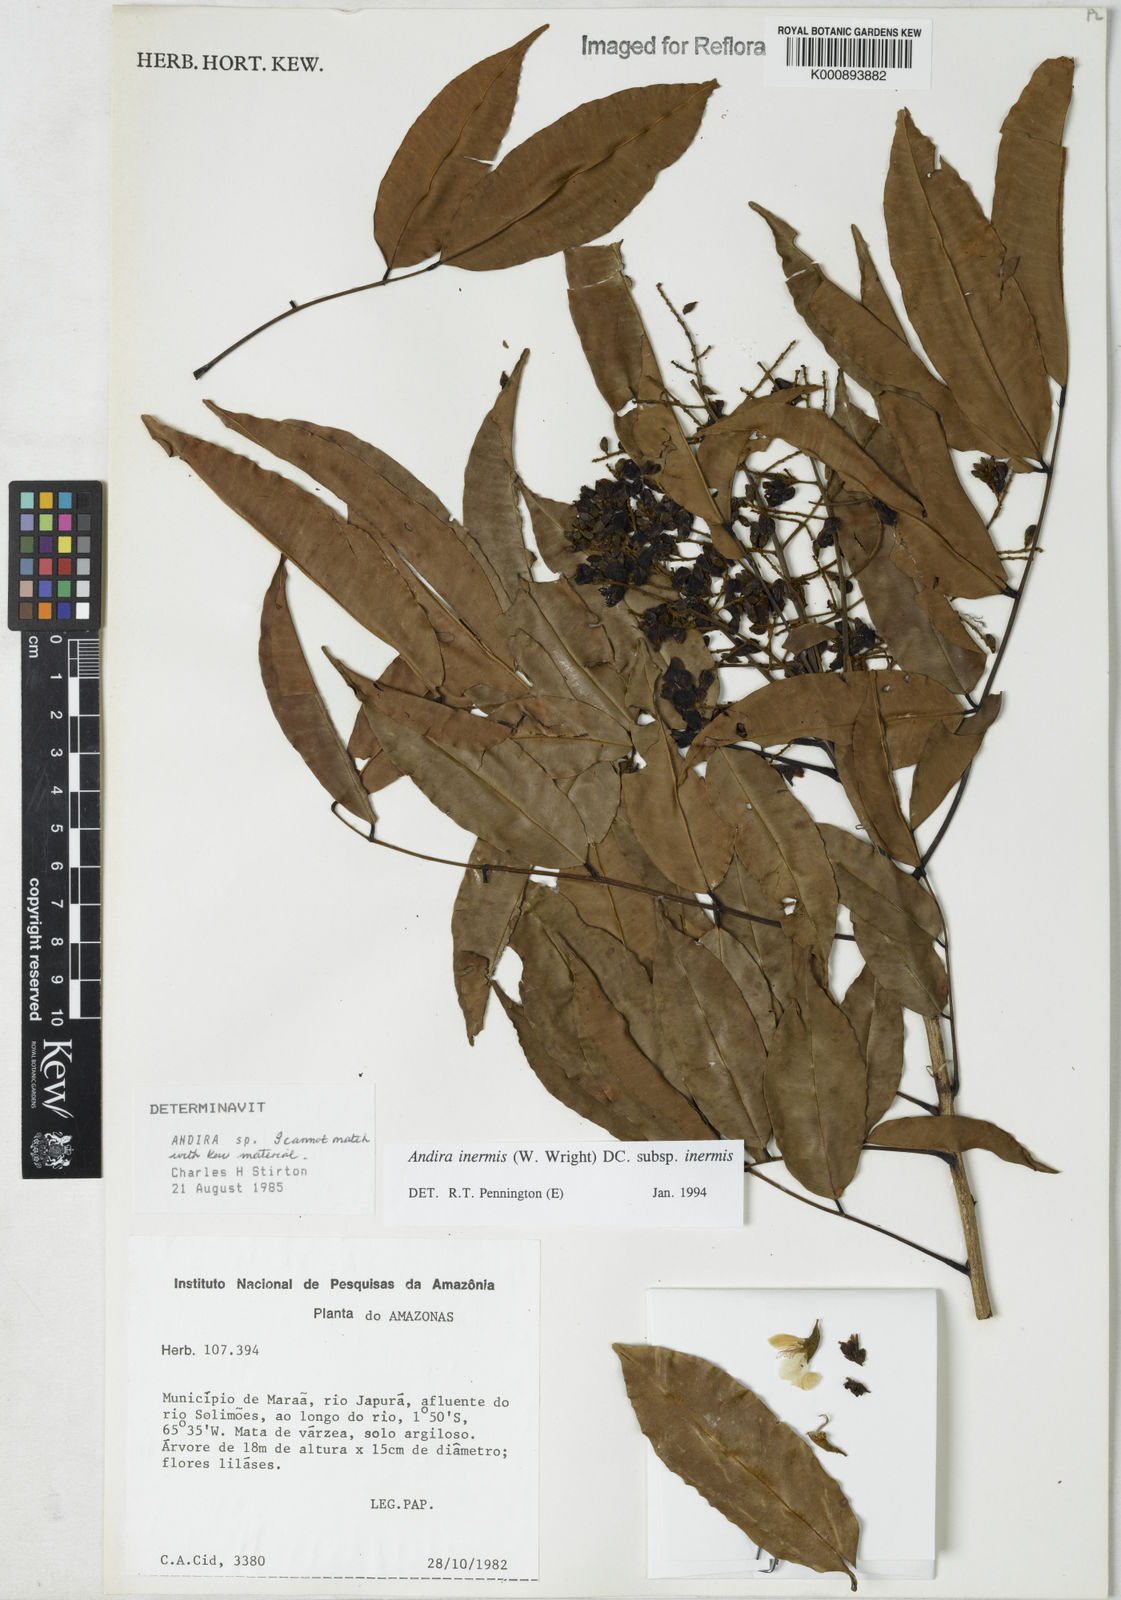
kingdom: Plantae
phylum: Tracheophyta
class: Magnoliopsida
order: Fabales
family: Fabaceae
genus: Andira
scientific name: Andira inermis
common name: Angelin
